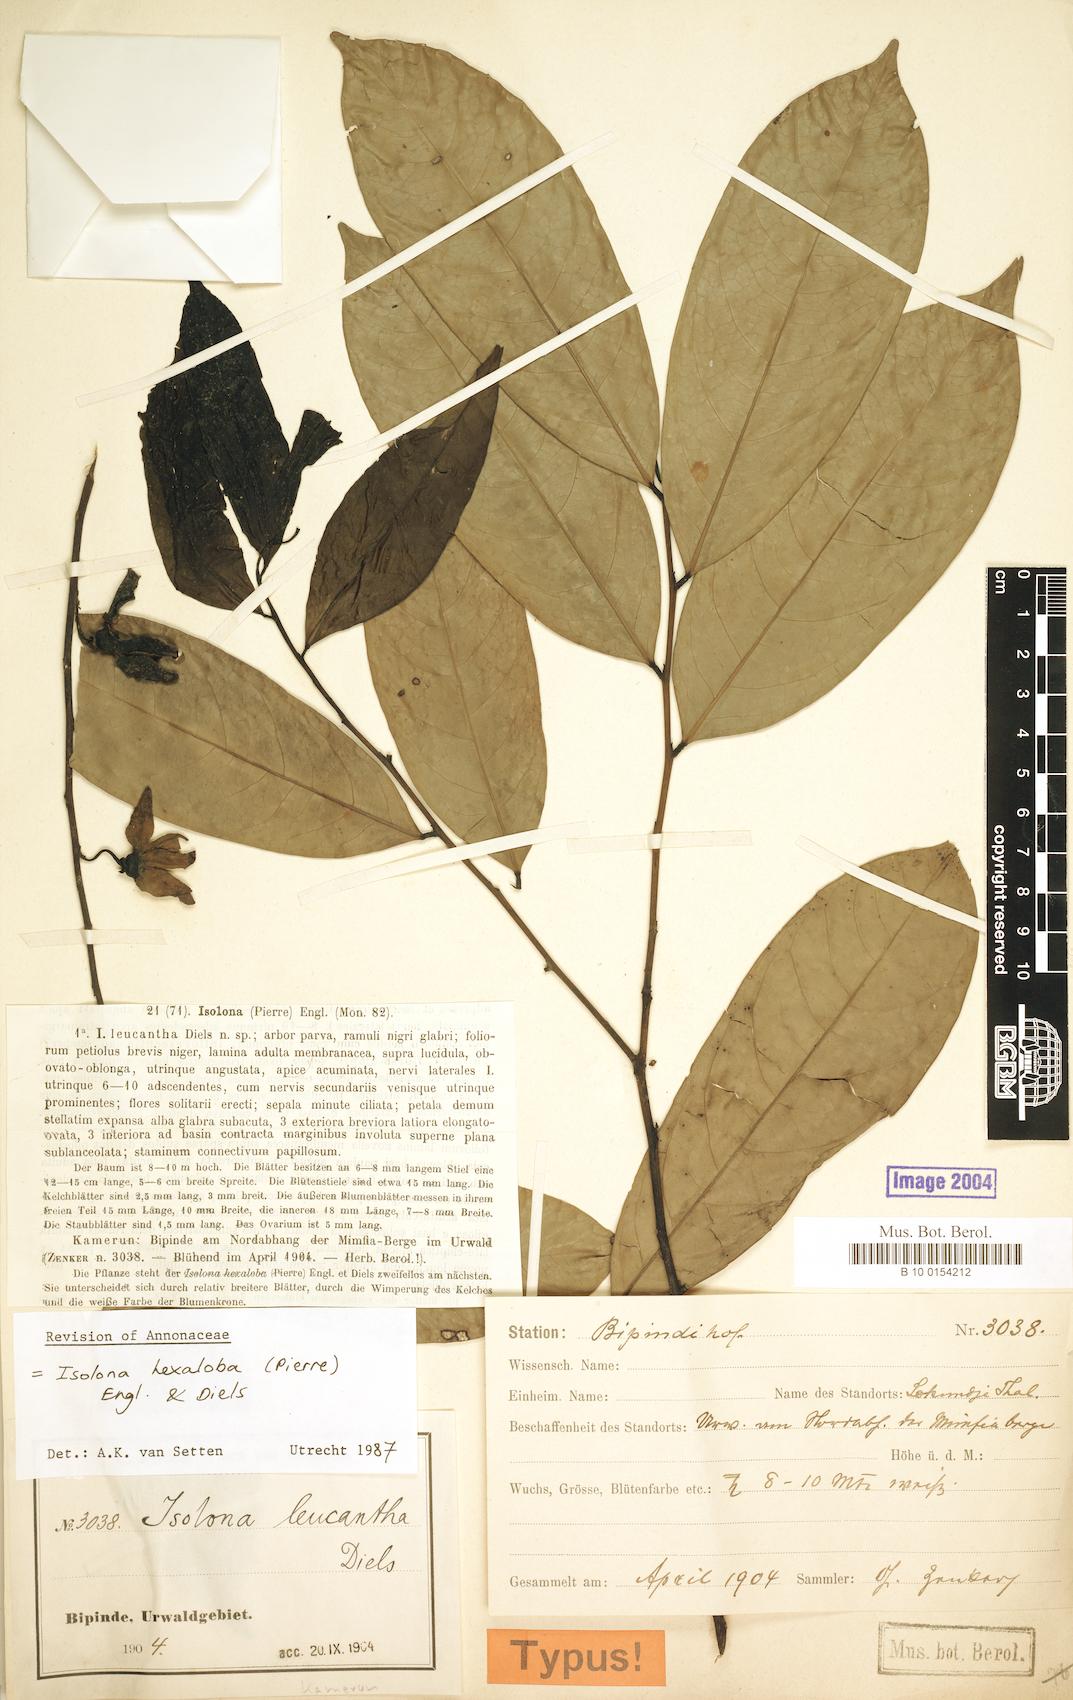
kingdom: Plantae
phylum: Tracheophyta
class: Magnoliopsida
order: Magnoliales
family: Annonaceae
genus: Isolona
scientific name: Isolona hexaloba
